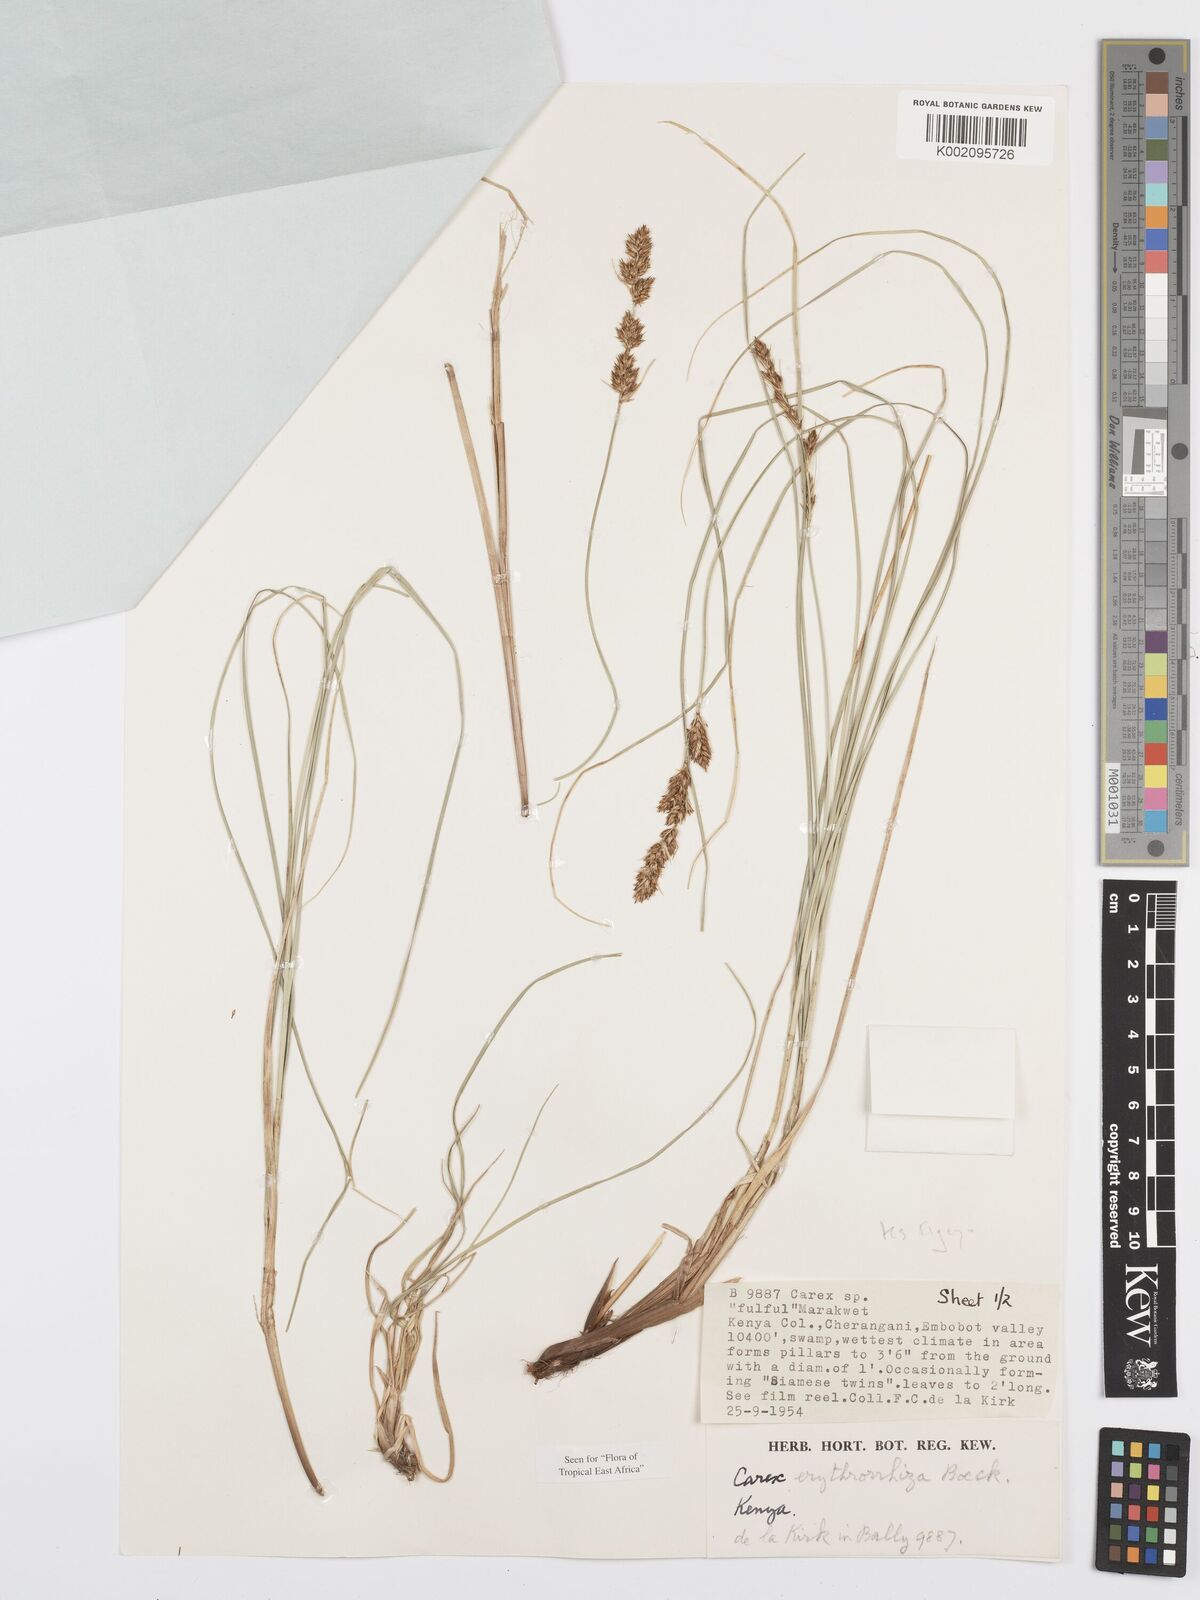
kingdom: Plantae
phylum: Tracheophyta
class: Liliopsida
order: Poales
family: Cyperaceae
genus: Carex
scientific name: Carex erythrorrhiza
